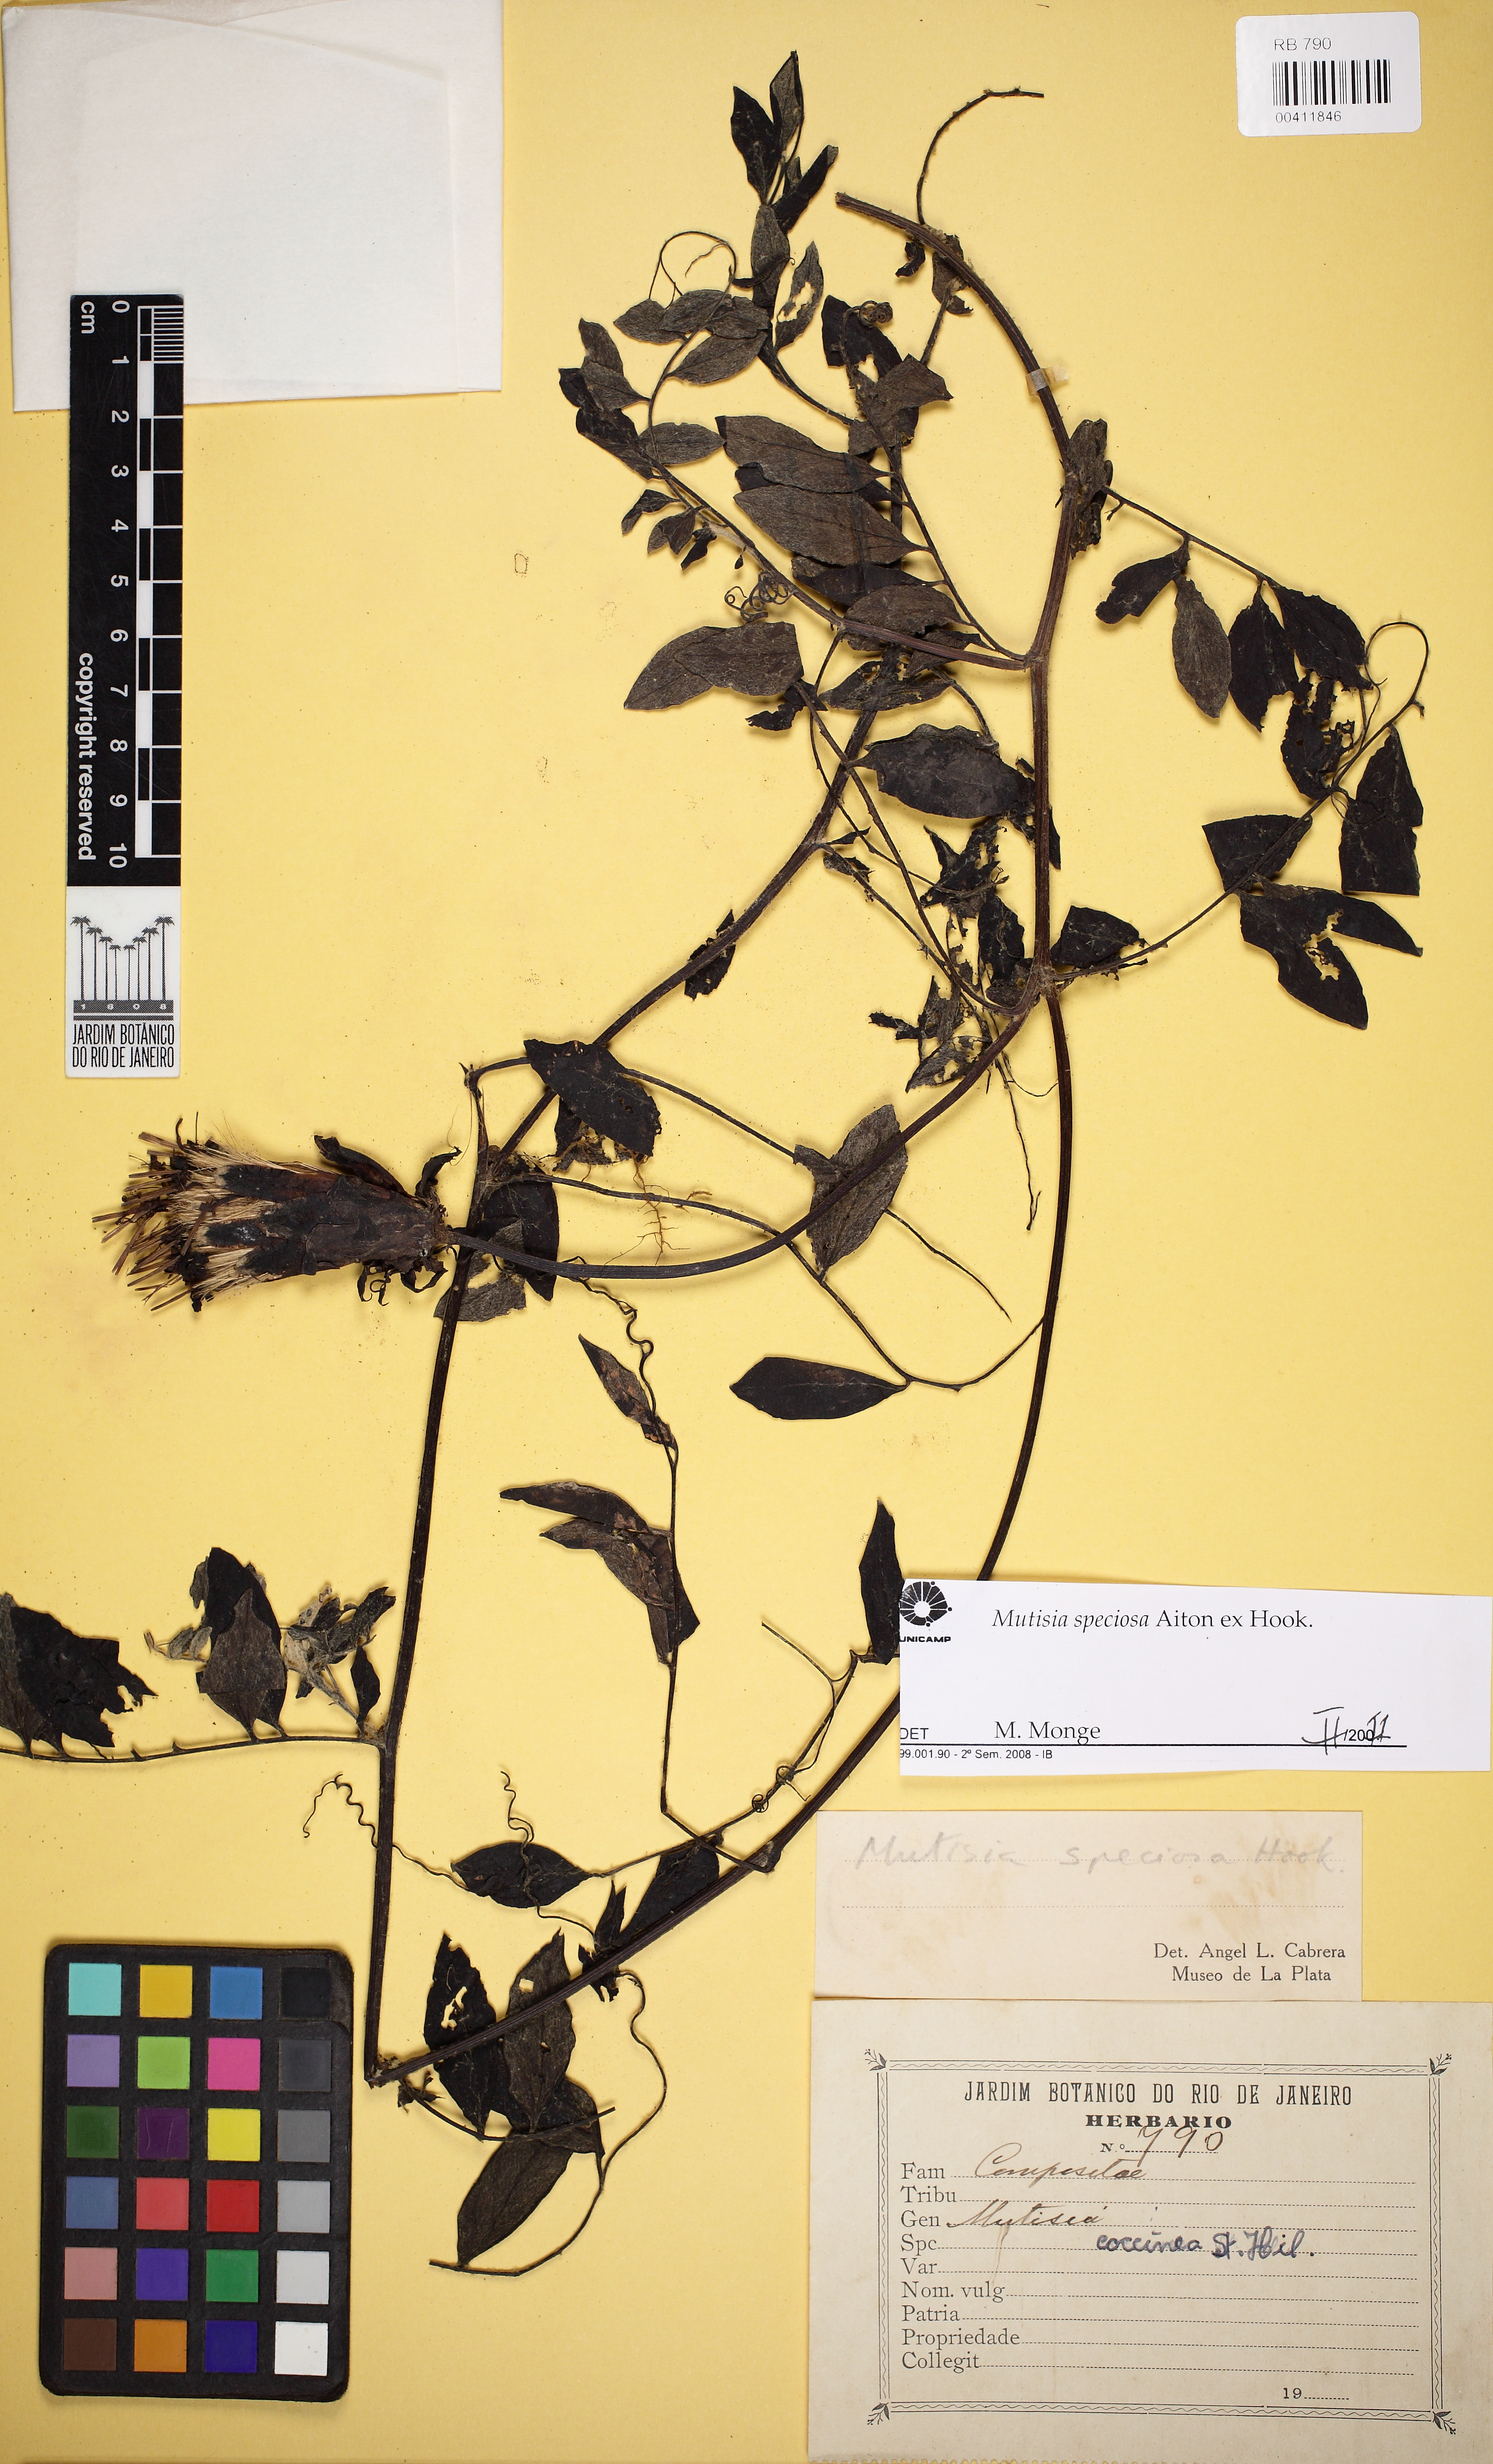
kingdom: Plantae
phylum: Tracheophyta
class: Magnoliopsida
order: Asterales
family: Asteraceae
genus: Mutisia
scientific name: Mutisia speciosa
